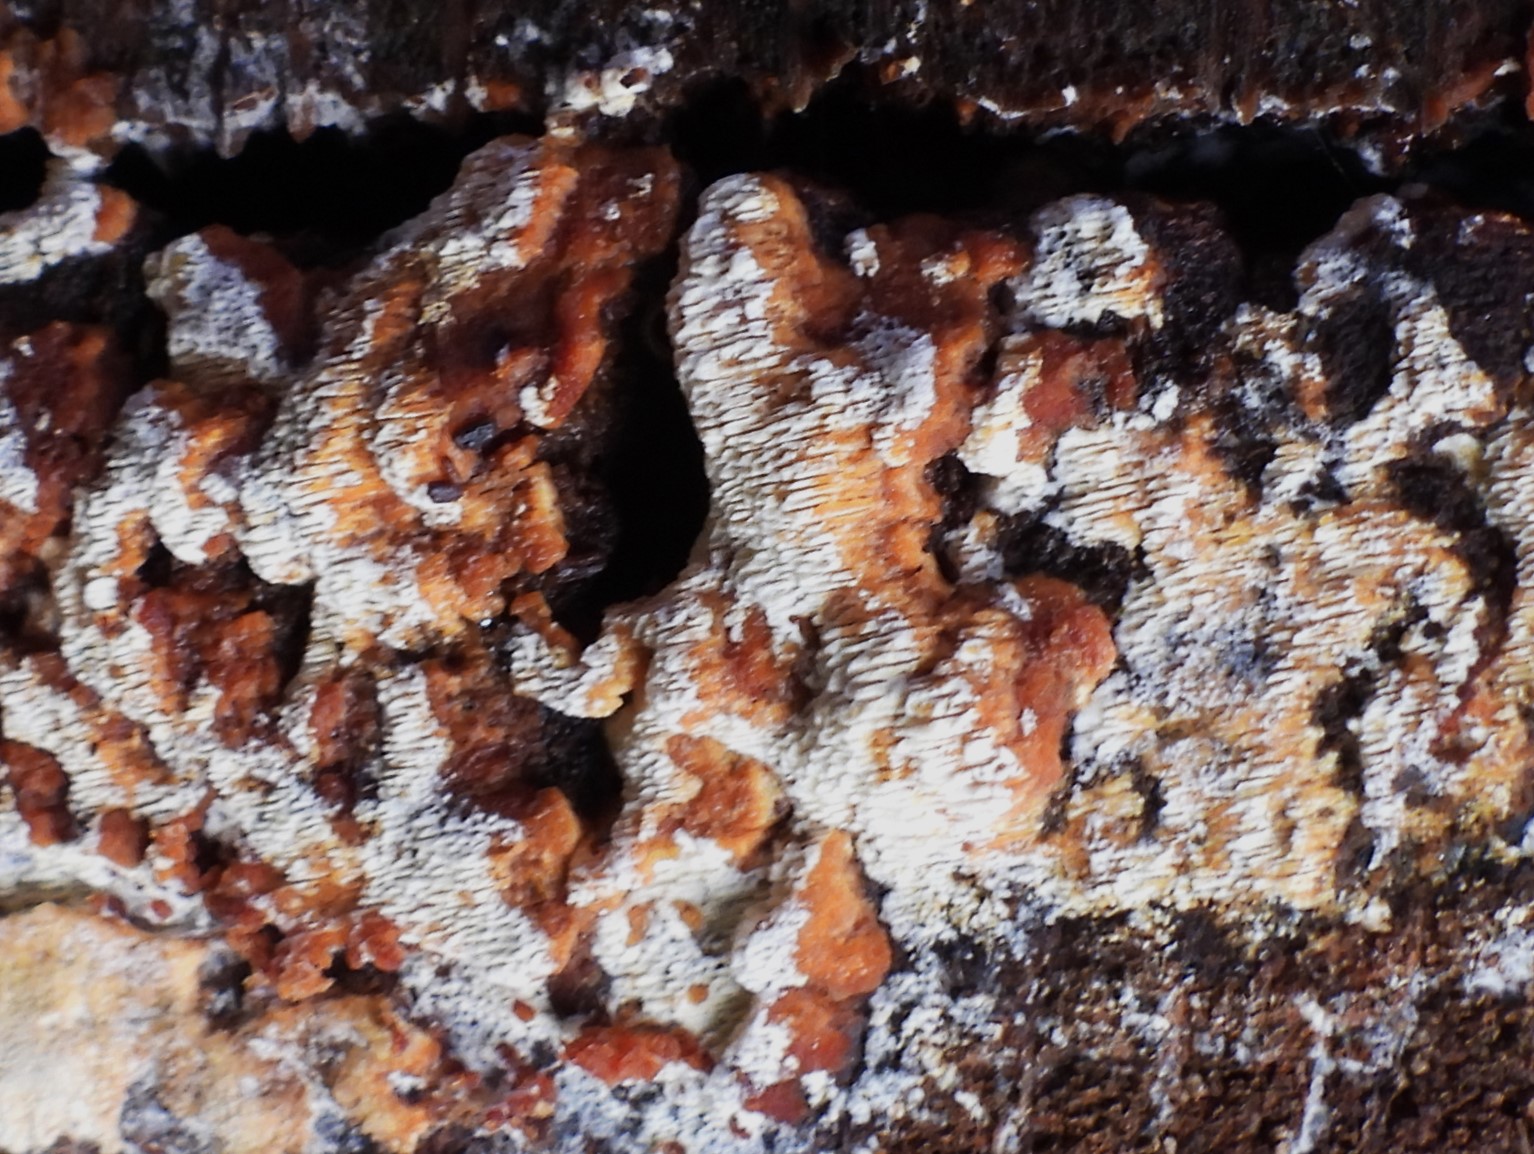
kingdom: Fungi
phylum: Basidiomycota
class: Agaricomycetes
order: Hymenochaetales
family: Hymenochaetaceae
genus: Mensularia
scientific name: Mensularia nodulosa
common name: bøge-spejlporesvamp
